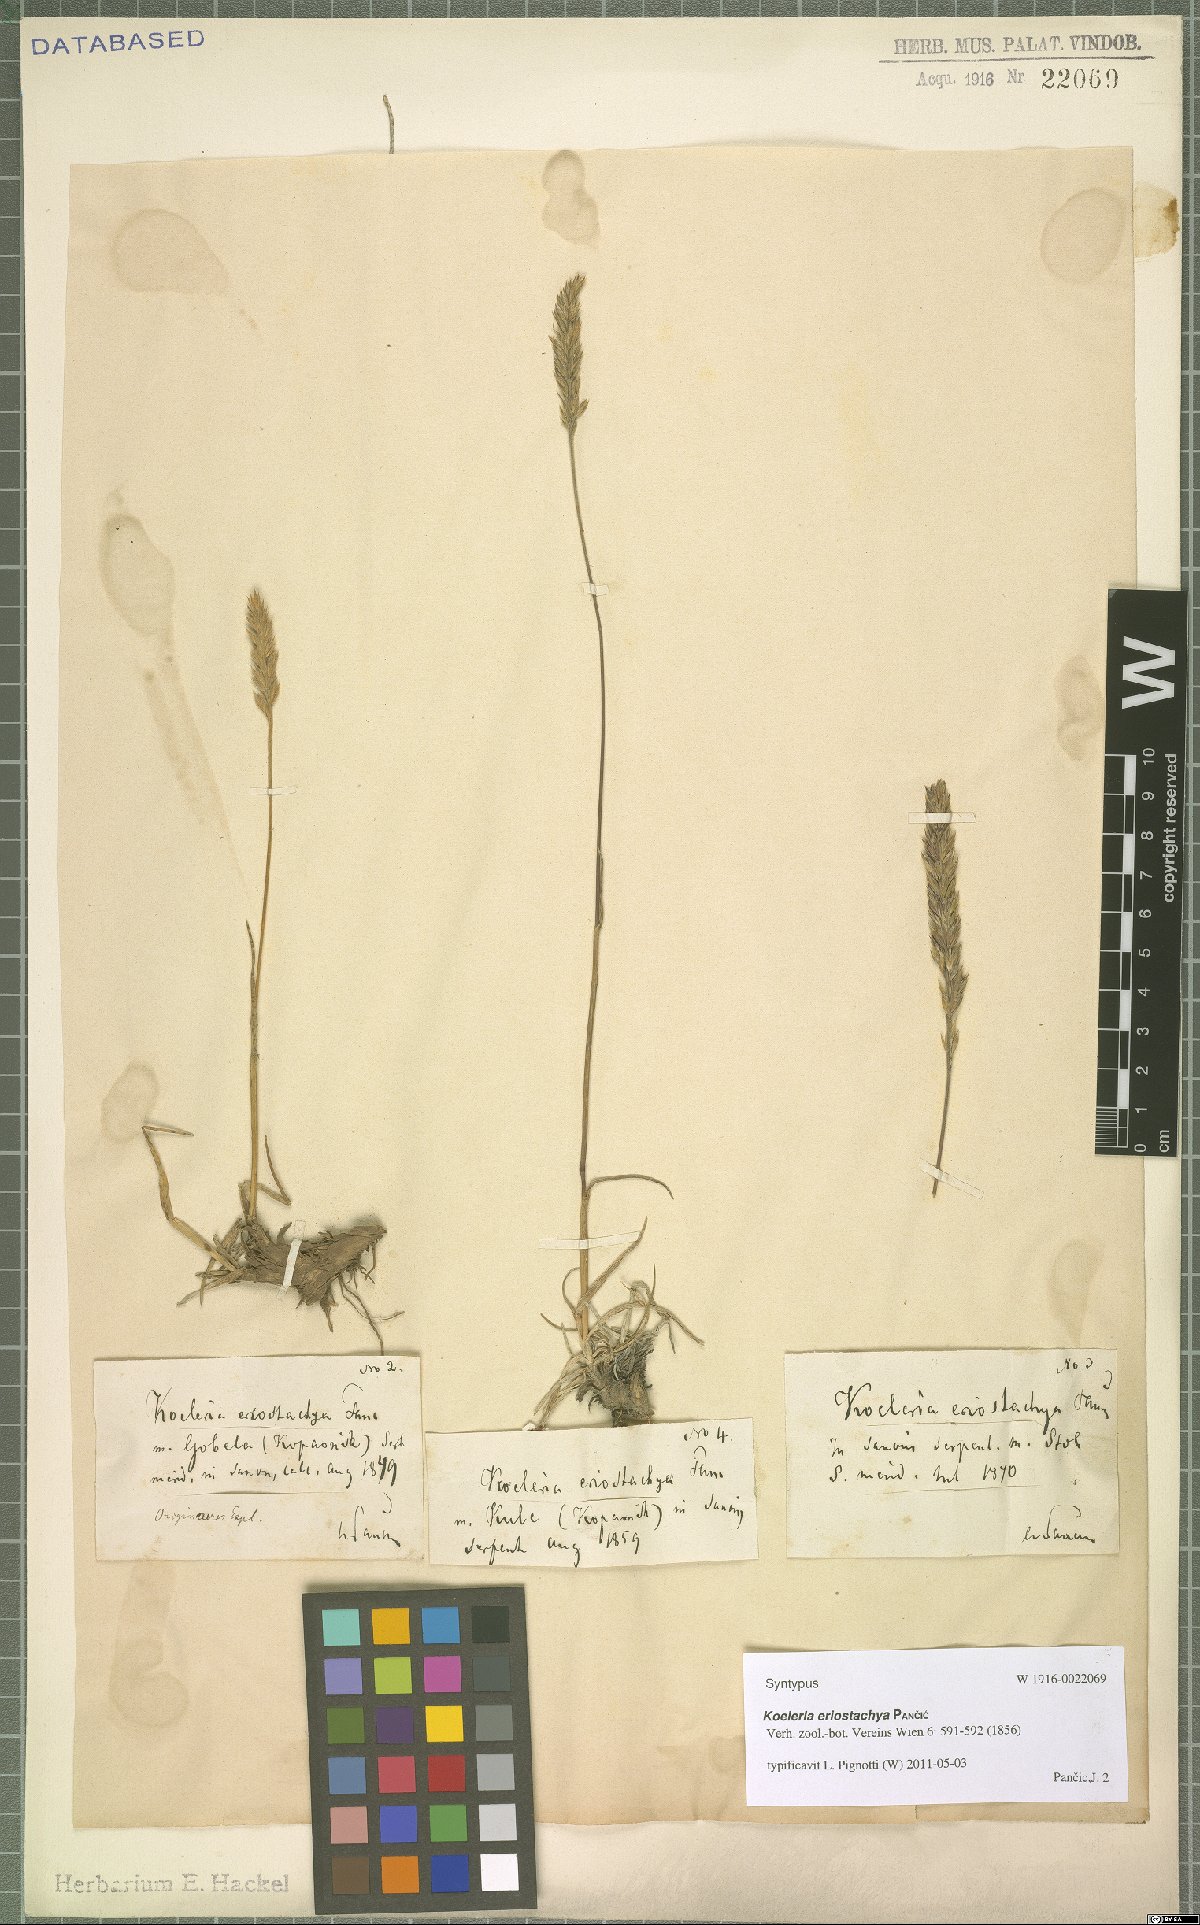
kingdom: Plantae
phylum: Tracheophyta
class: Liliopsida
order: Poales
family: Poaceae
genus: Koeleria
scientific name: Koeleria eriostachya
